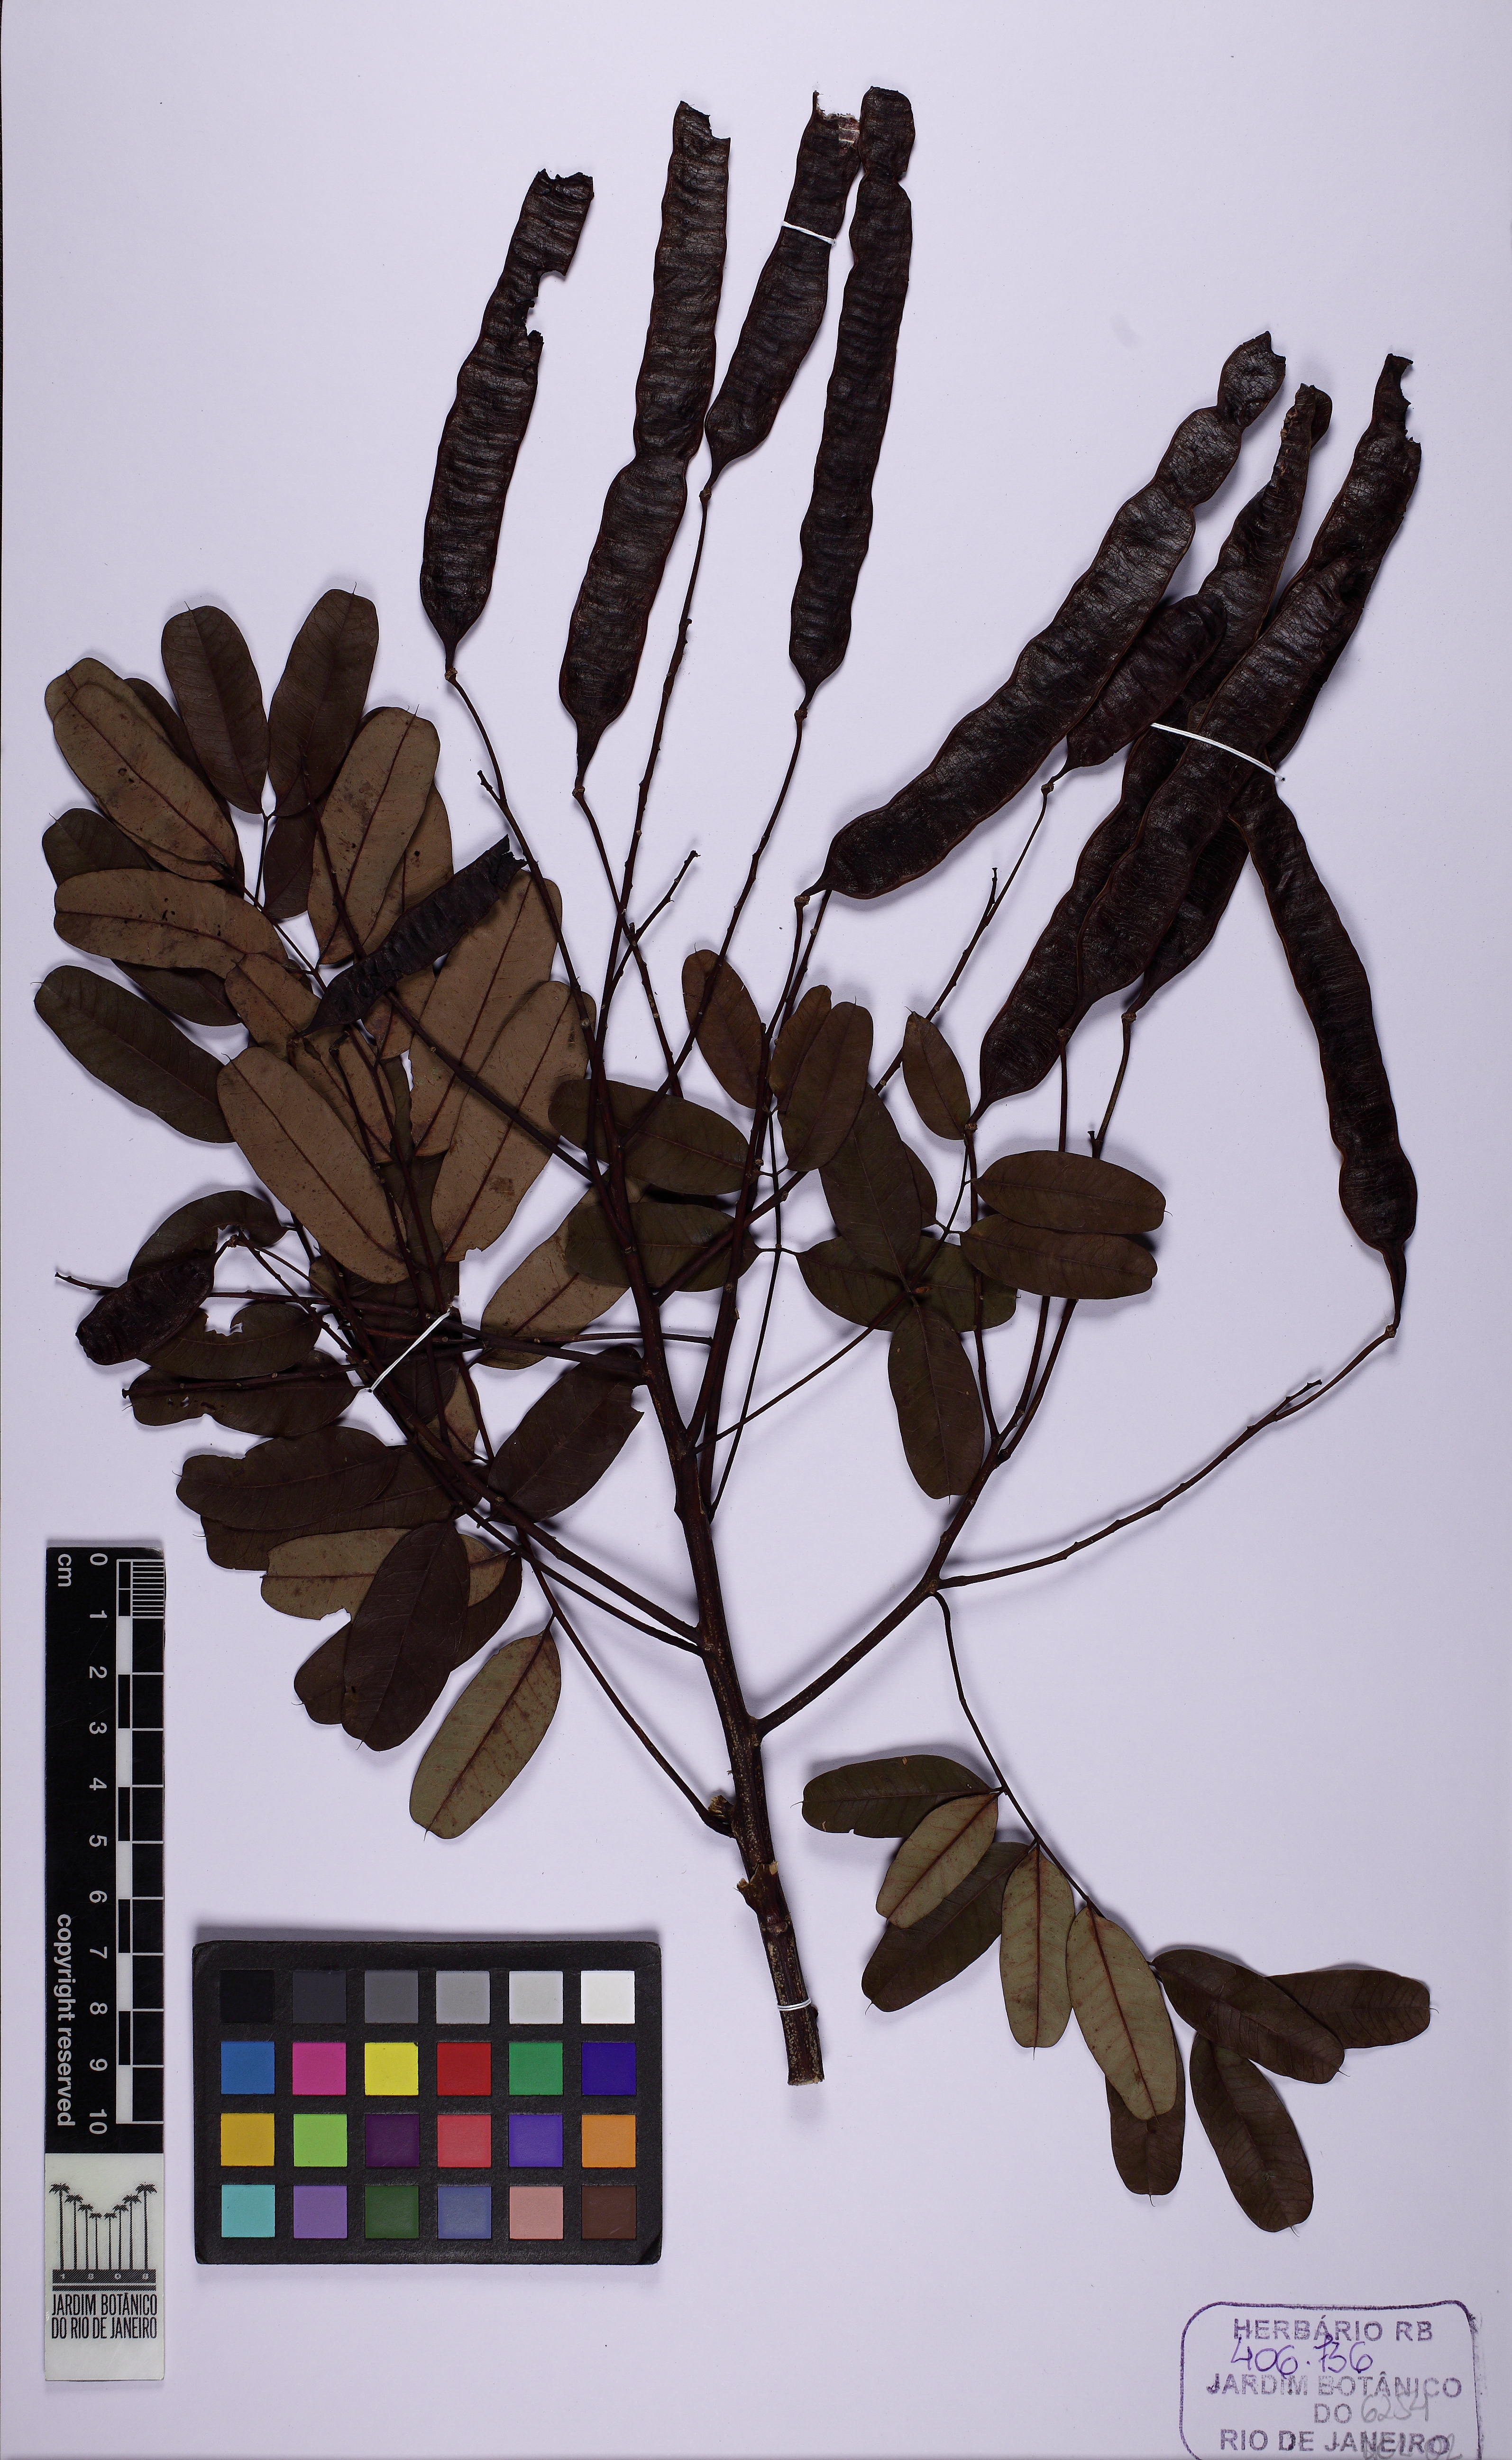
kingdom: Plantae
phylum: Tracheophyta
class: Magnoliopsida
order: Fabales
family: Fabaceae
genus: Senna
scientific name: Senna multijuga
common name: False sicklepod
